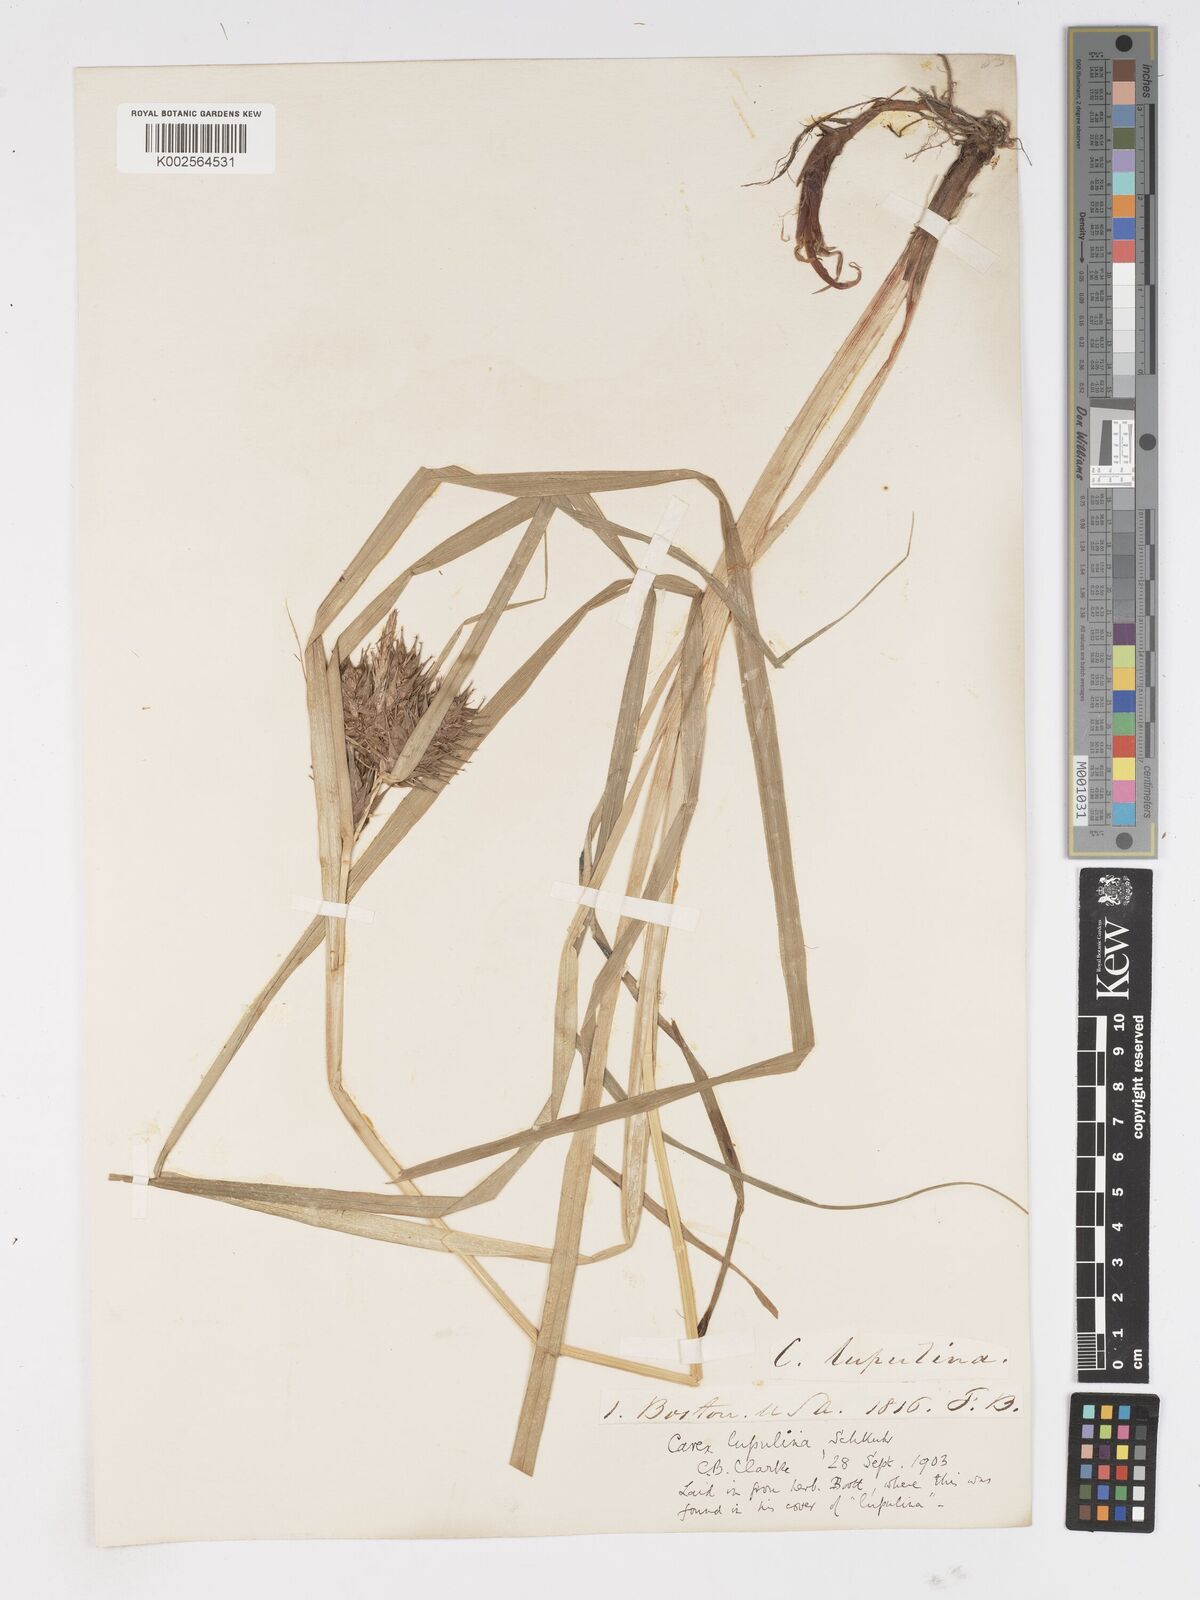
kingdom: Plantae
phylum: Tracheophyta
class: Liliopsida
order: Poales
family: Cyperaceae
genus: Carex
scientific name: Carex lupulina
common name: Hop sedge
